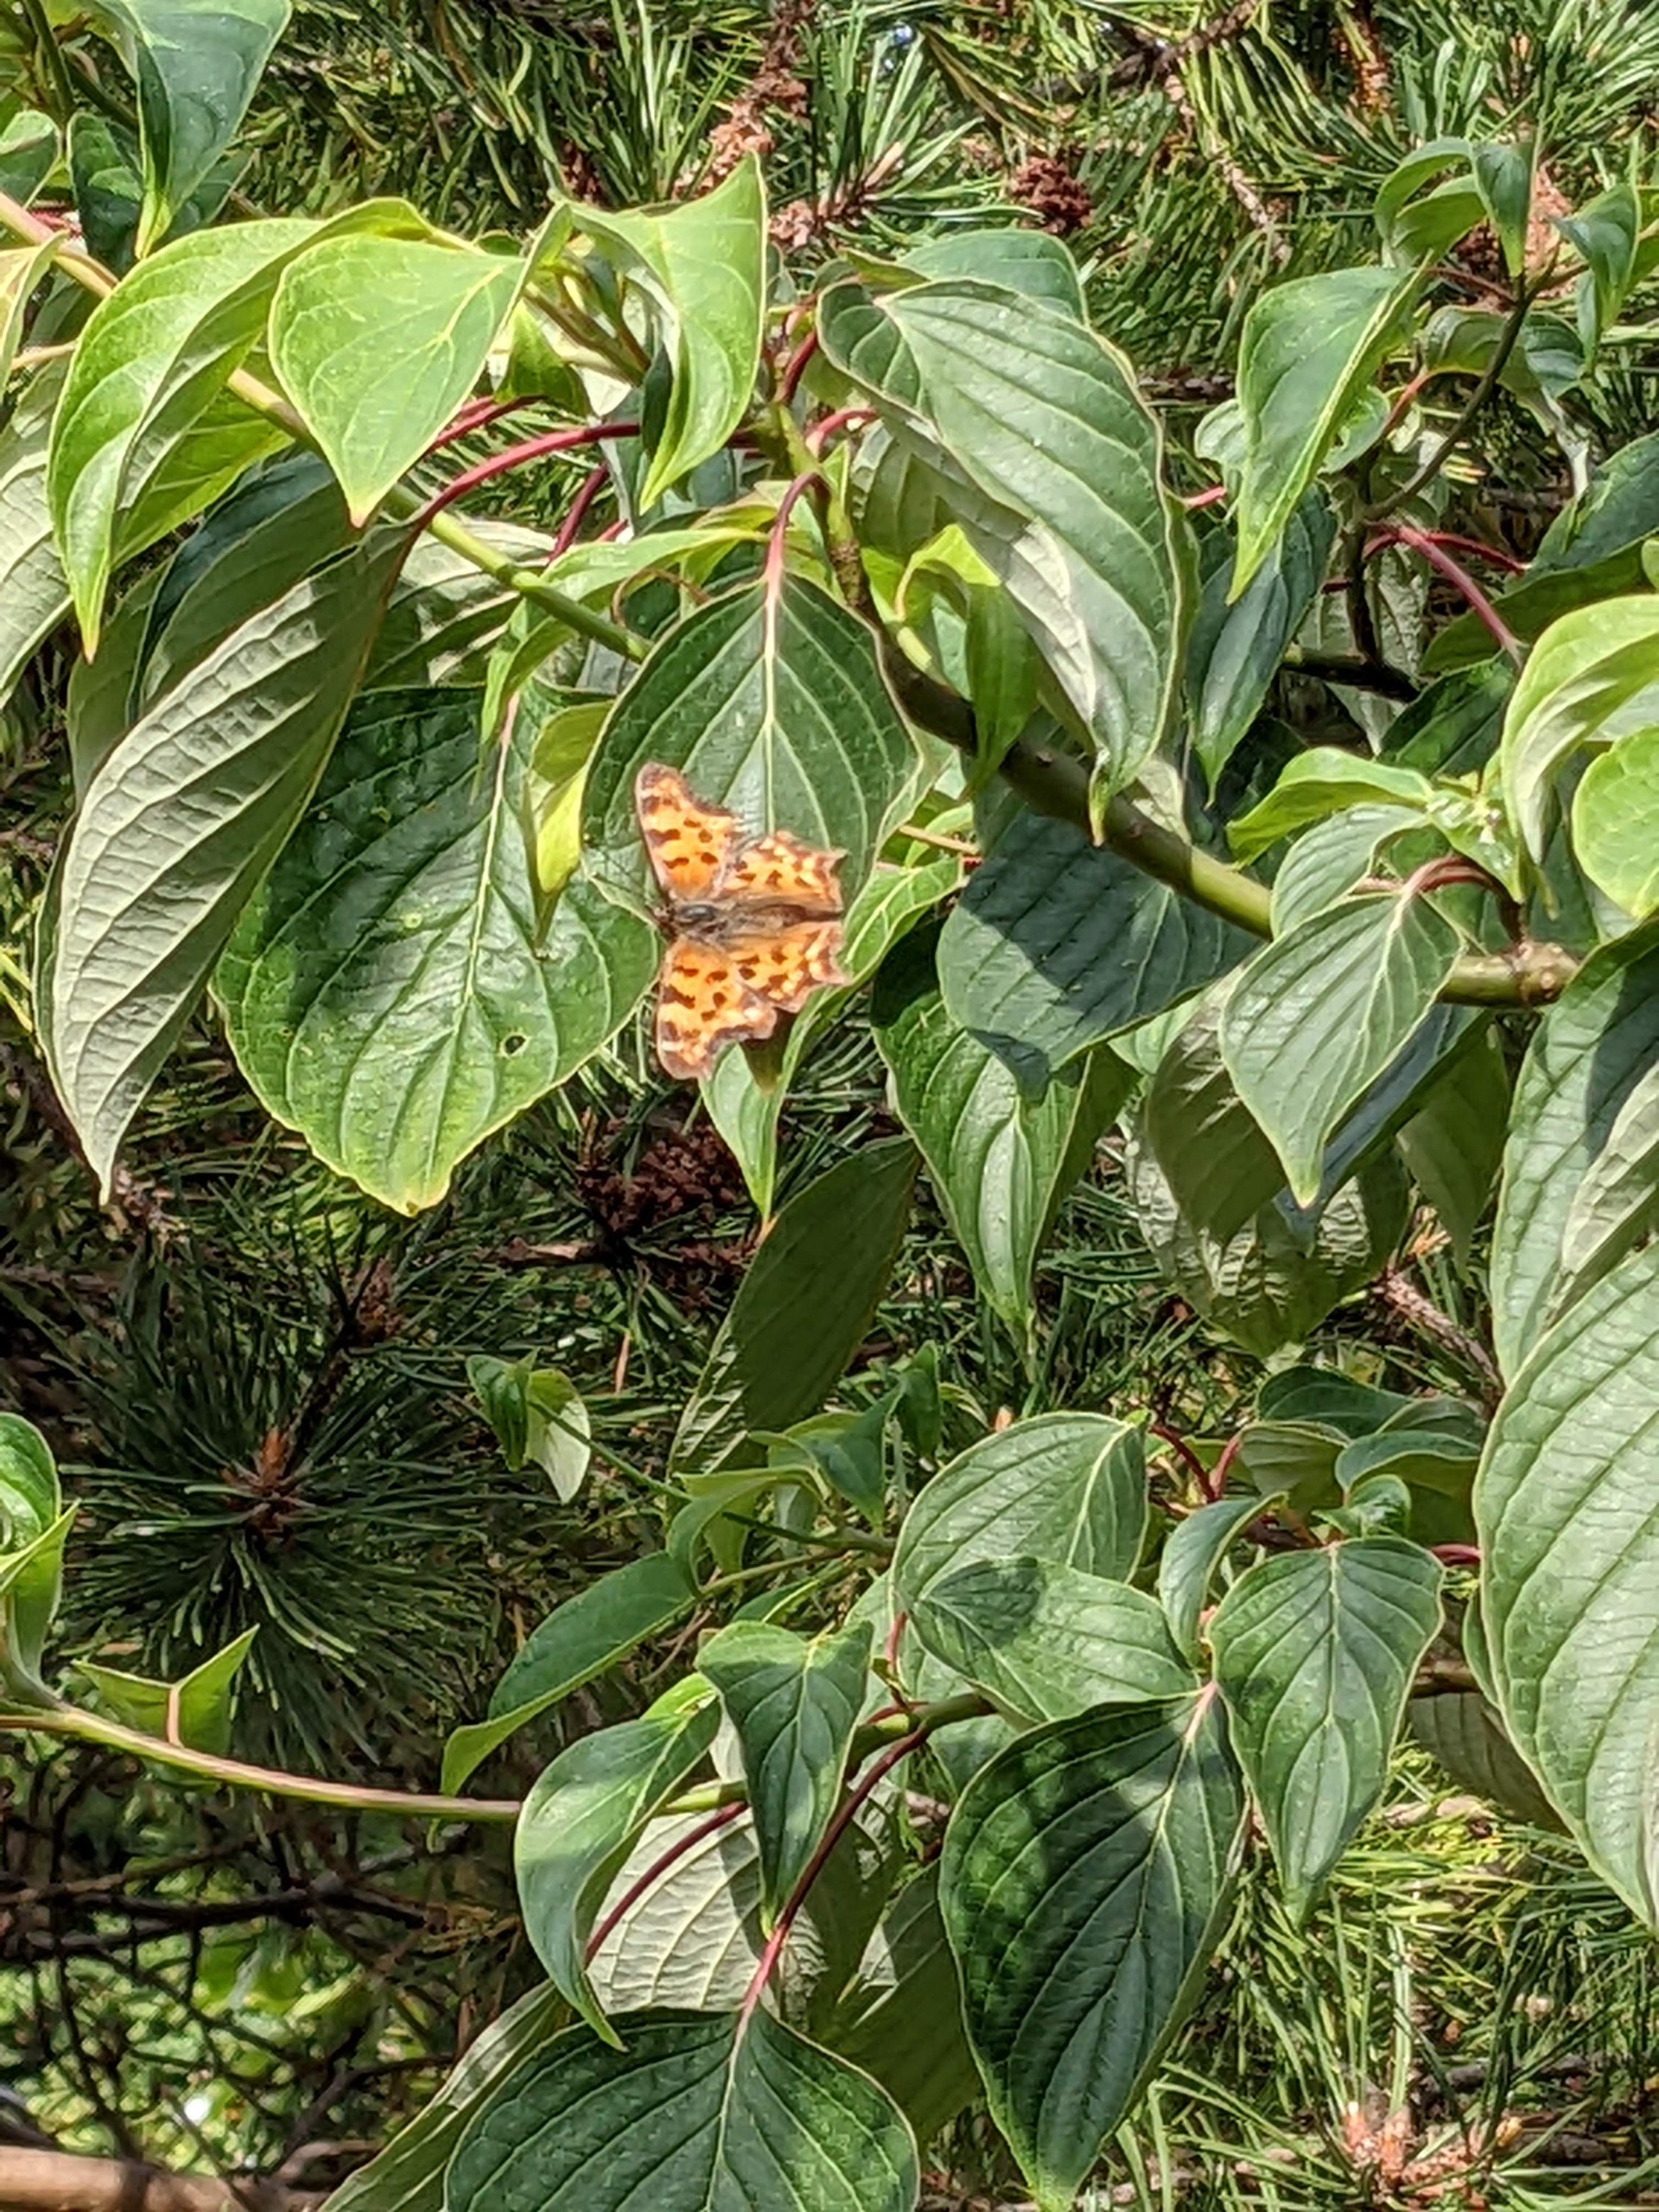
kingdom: Animalia
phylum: Arthropoda
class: Insecta
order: Lepidoptera
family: Nymphalidae
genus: Polygonia
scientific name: Polygonia c-album
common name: Det hvide C
